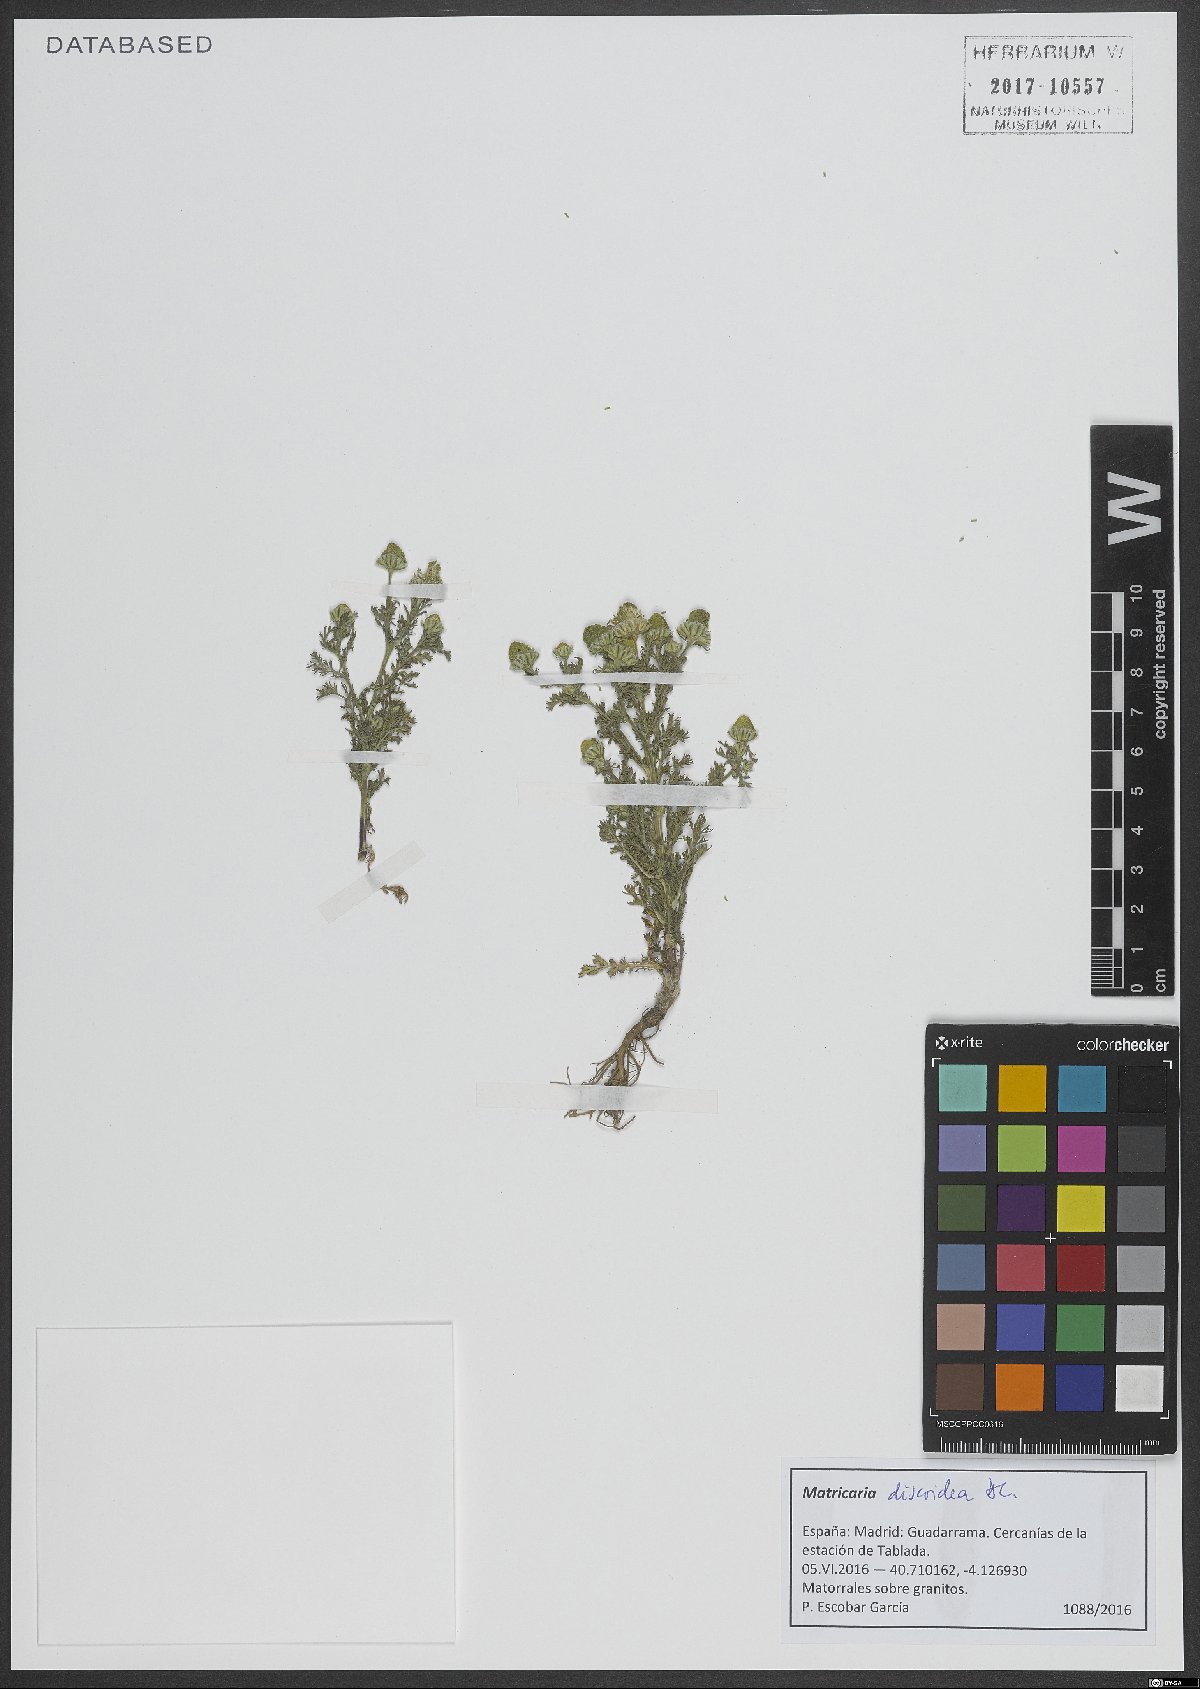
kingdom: Plantae
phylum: Tracheophyta
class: Magnoliopsida
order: Asterales
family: Asteraceae
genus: Matricaria
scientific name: Matricaria discoidea
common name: Disc mayweed
